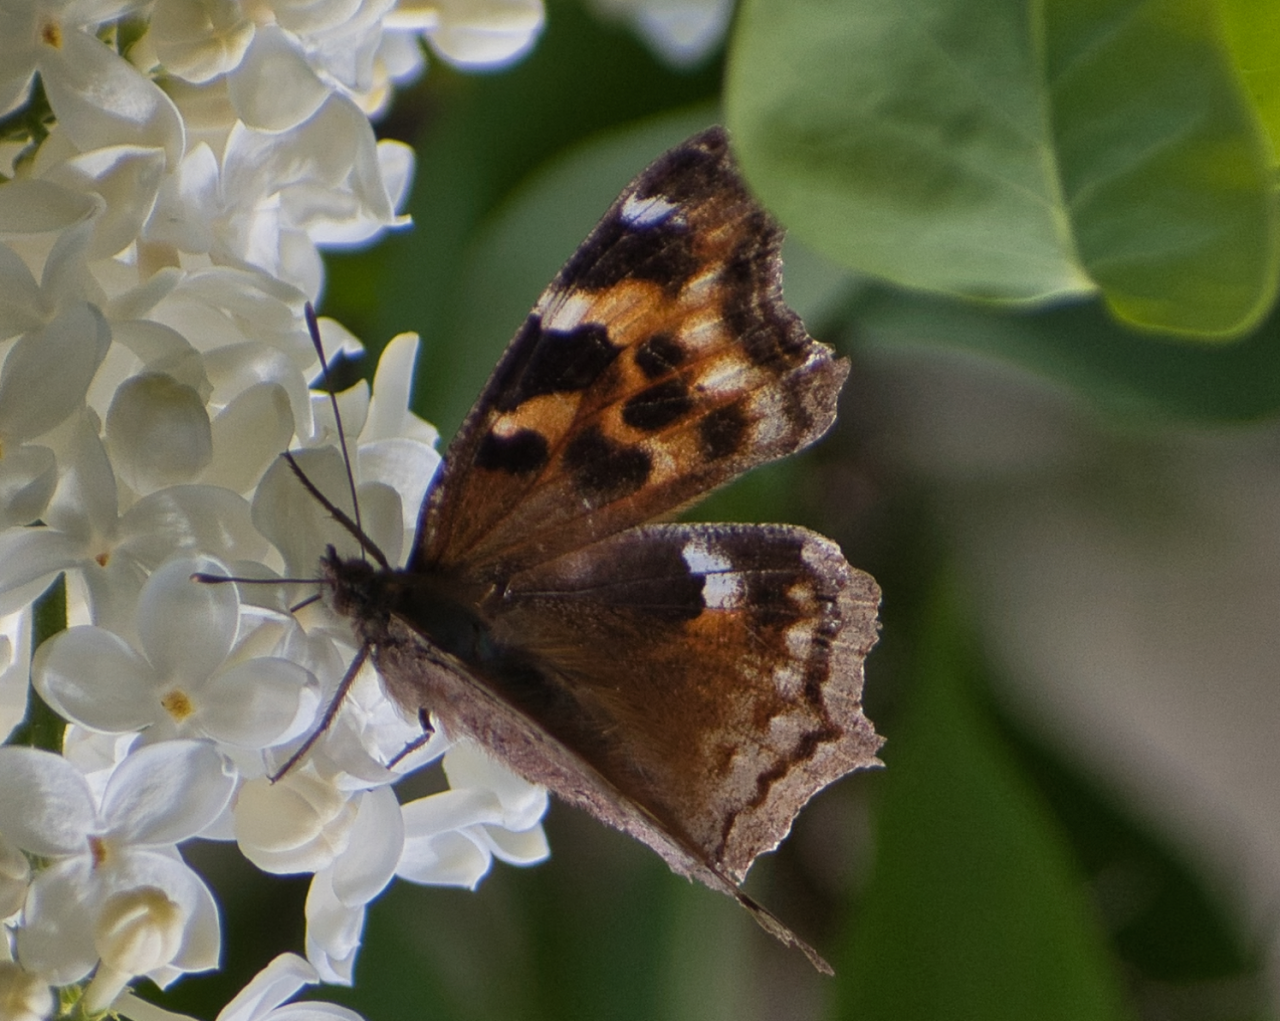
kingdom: Animalia
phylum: Arthropoda
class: Insecta
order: Lepidoptera
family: Nymphalidae
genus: Polygonia
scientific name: Polygonia vaualbum
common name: Compton Tortoiseshell
